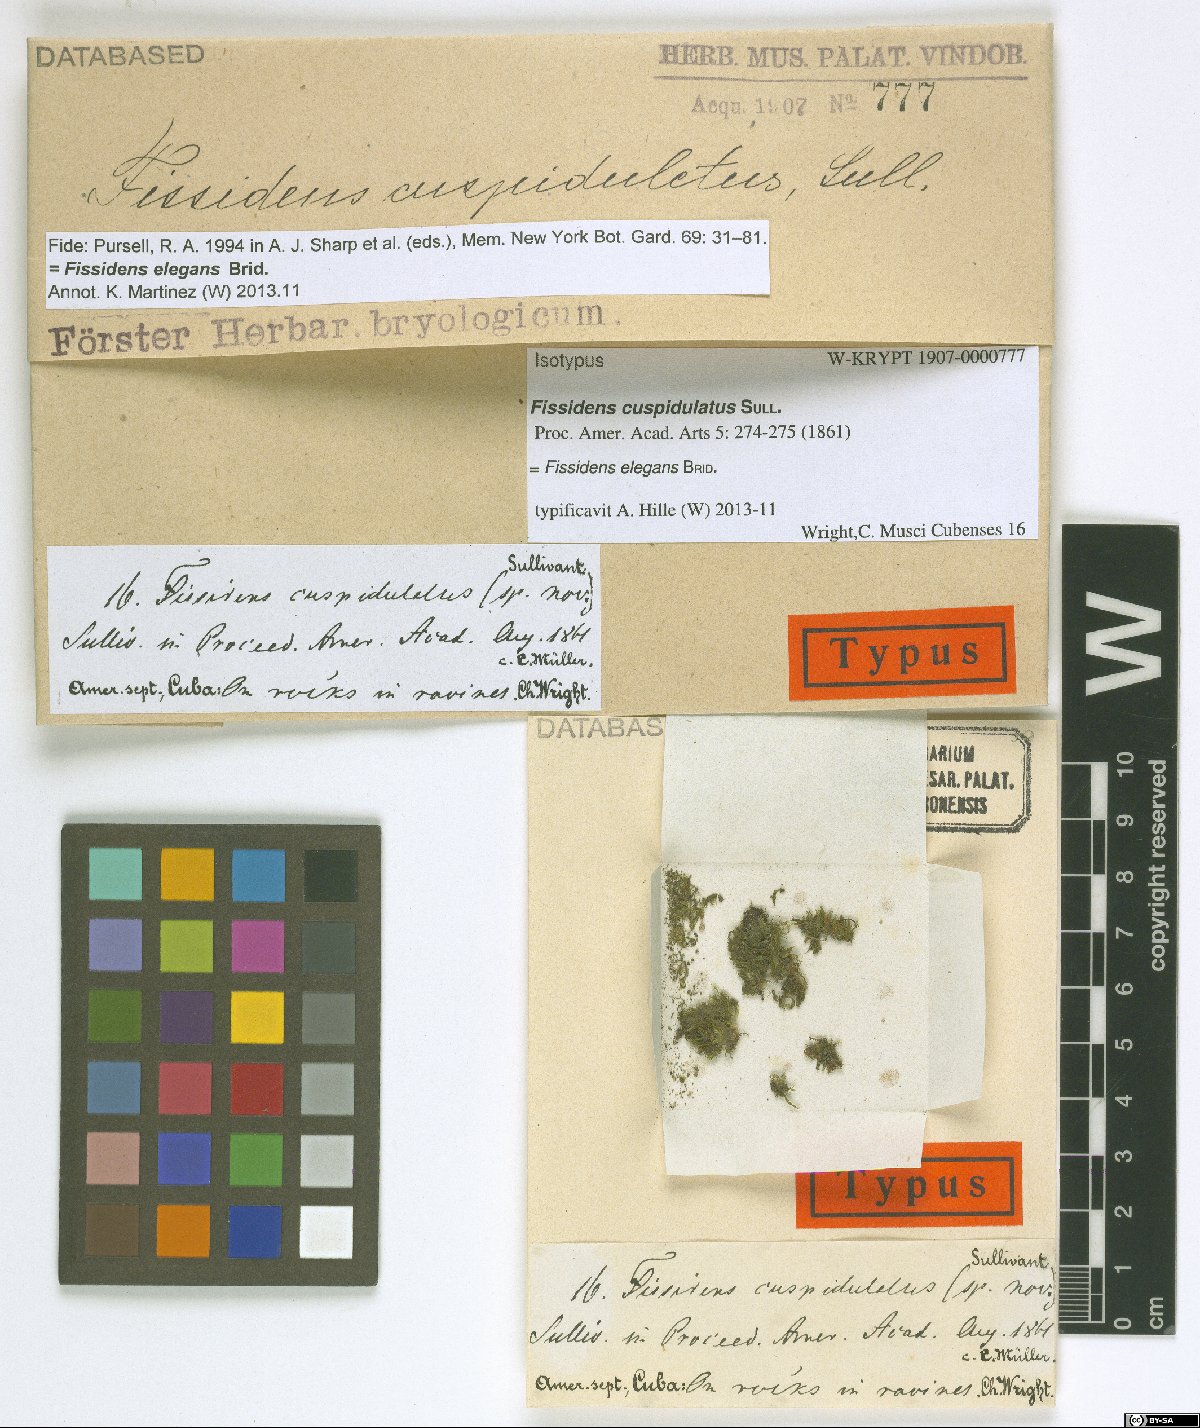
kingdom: Plantae
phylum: Bryophyta
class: Bryopsida
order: Dicranales
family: Fissidentaceae
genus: Fissidens
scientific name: Fissidens curvatus
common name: Milo's fissidens moss
